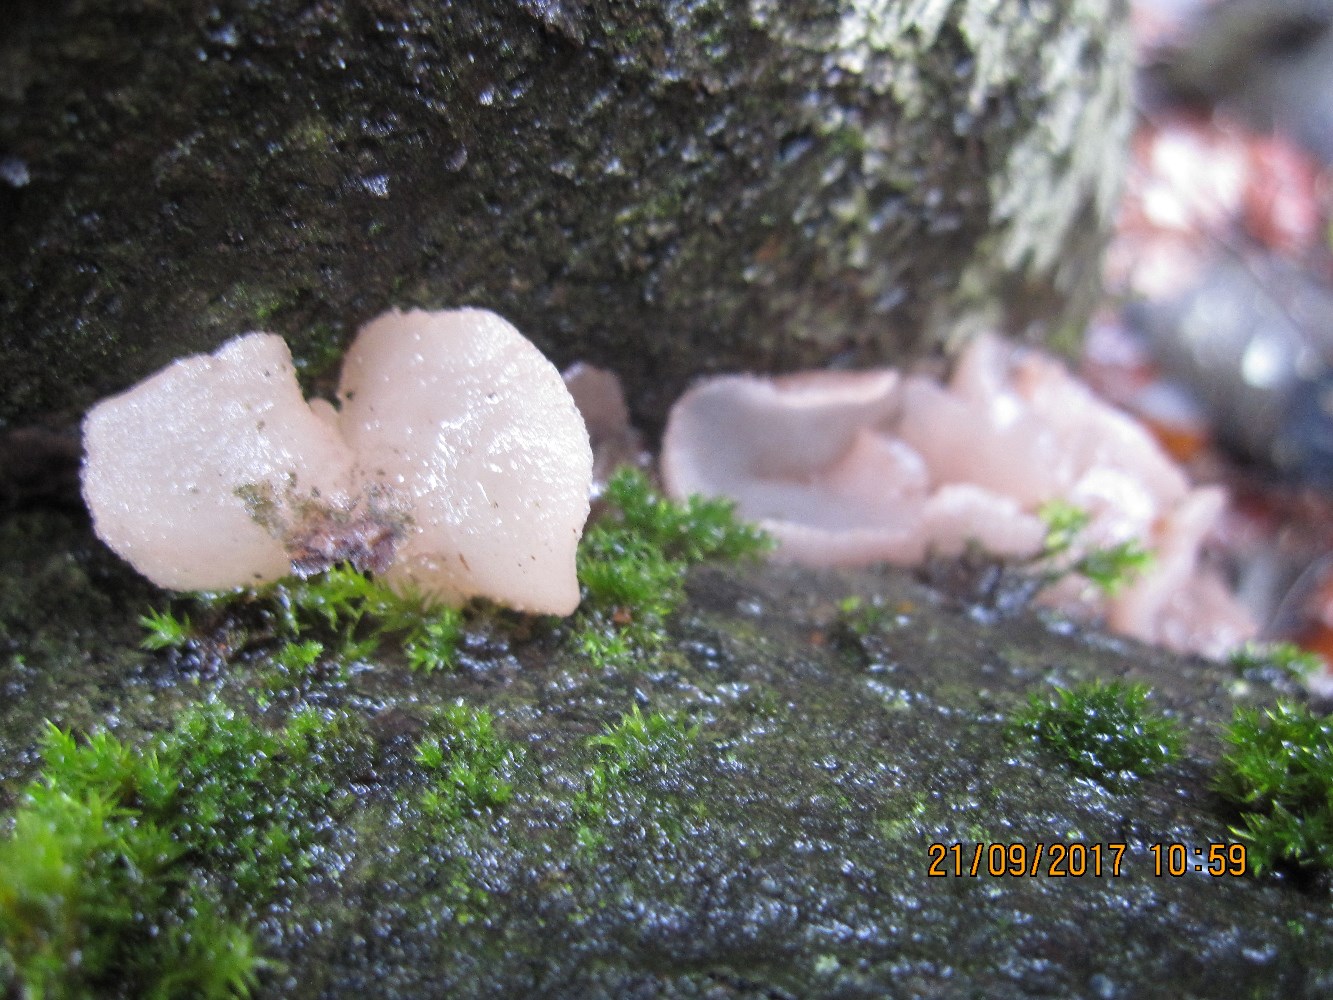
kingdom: Fungi
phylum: Ascomycota
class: Leotiomycetes
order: Helotiales
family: Gelatinodiscaceae
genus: Neobulgaria
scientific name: Neobulgaria pura
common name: bleg bævreskive
